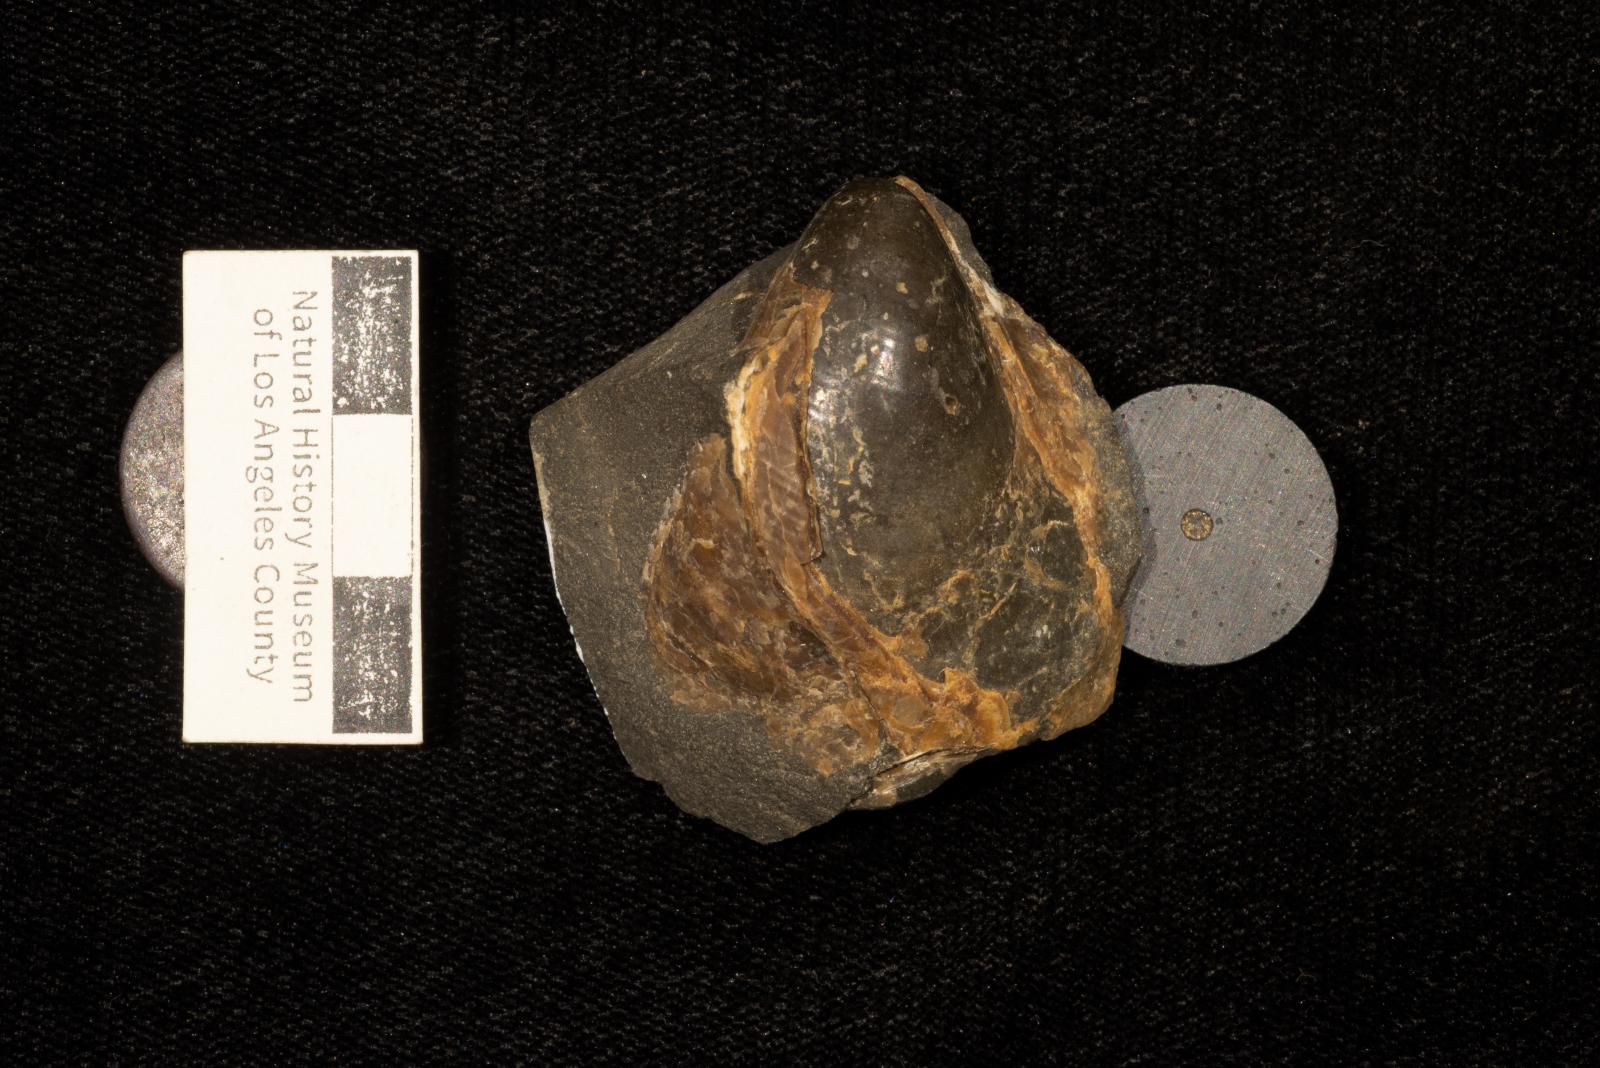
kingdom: Animalia
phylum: Mollusca
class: Bivalvia
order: Myalinida
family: Inoceramidae
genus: Inoceramus
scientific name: Inoceramus tenuistriatus
